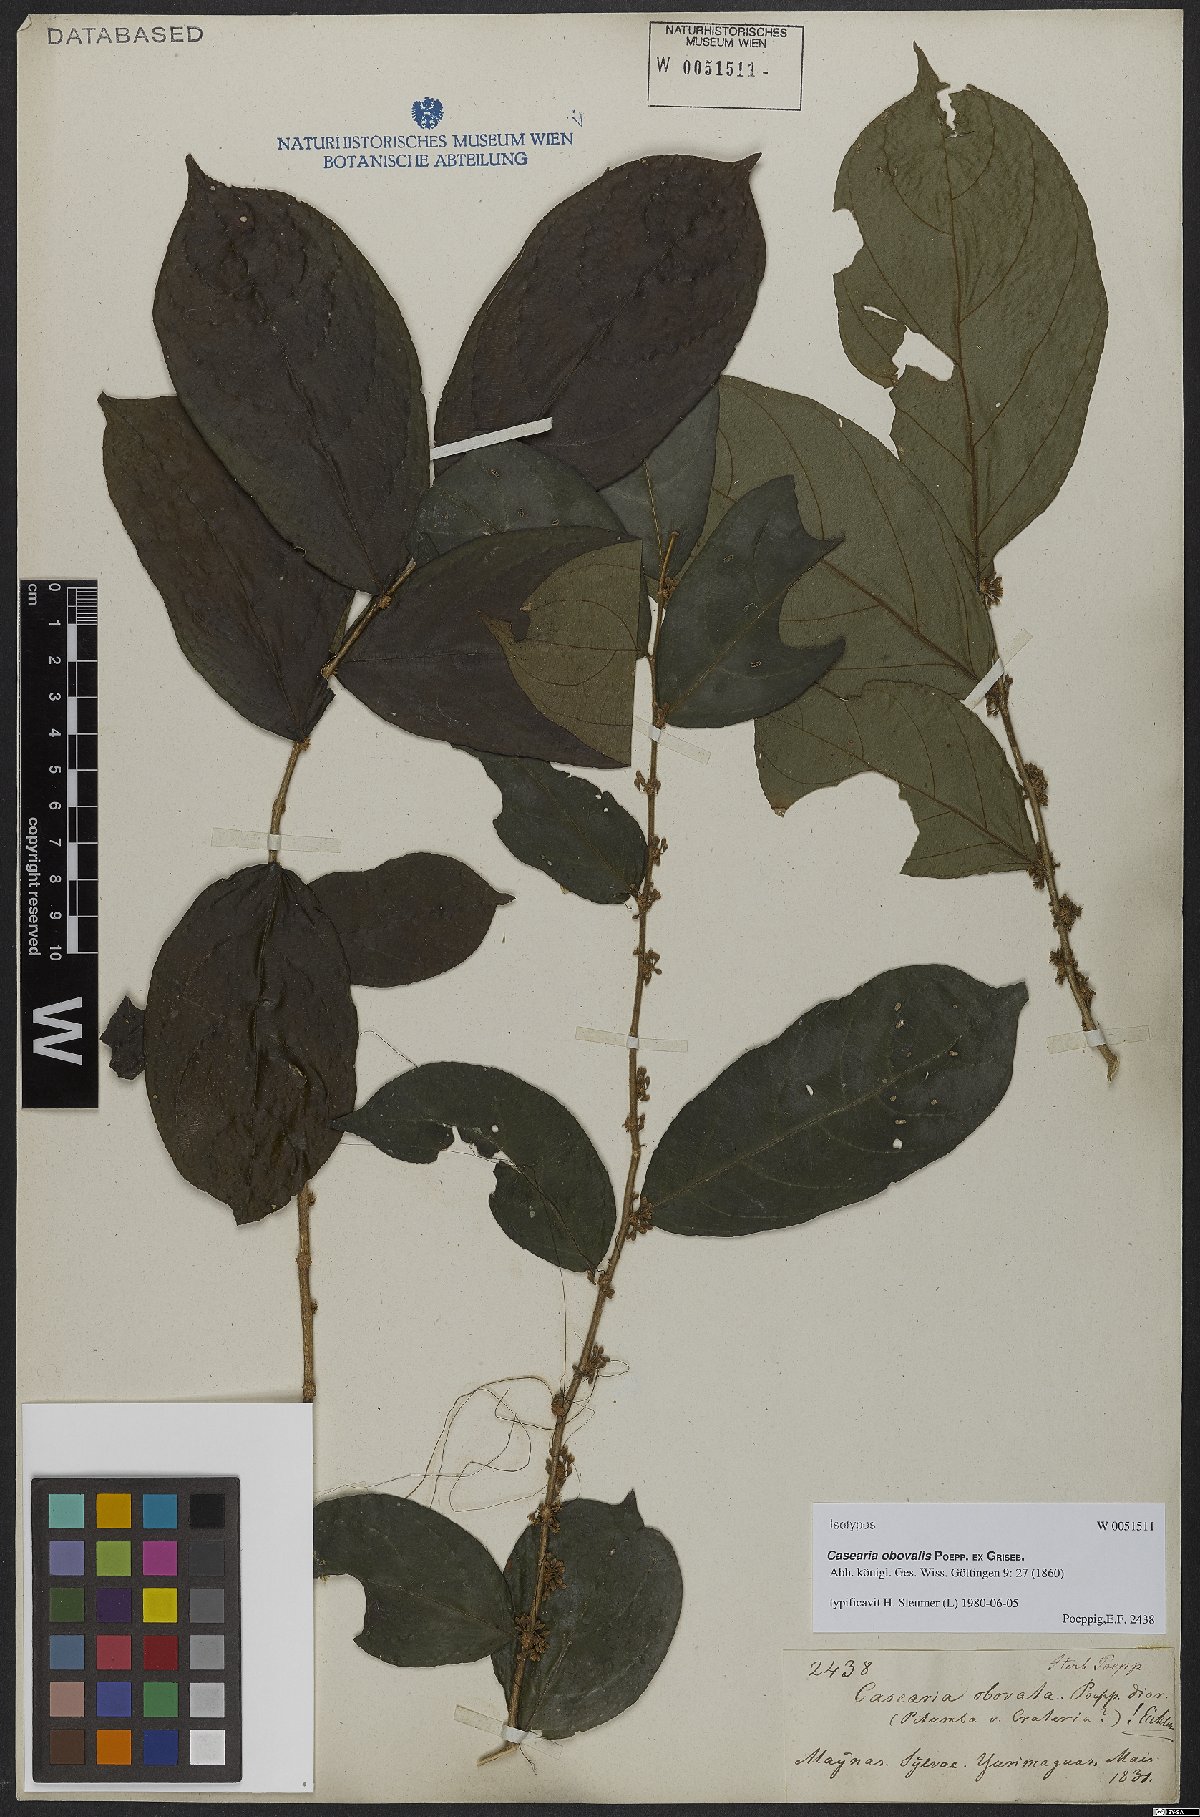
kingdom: Plantae
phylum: Tracheophyta
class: Magnoliopsida
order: Malpighiales
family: Salicaceae
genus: Casearia
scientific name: Casearia obovalis
